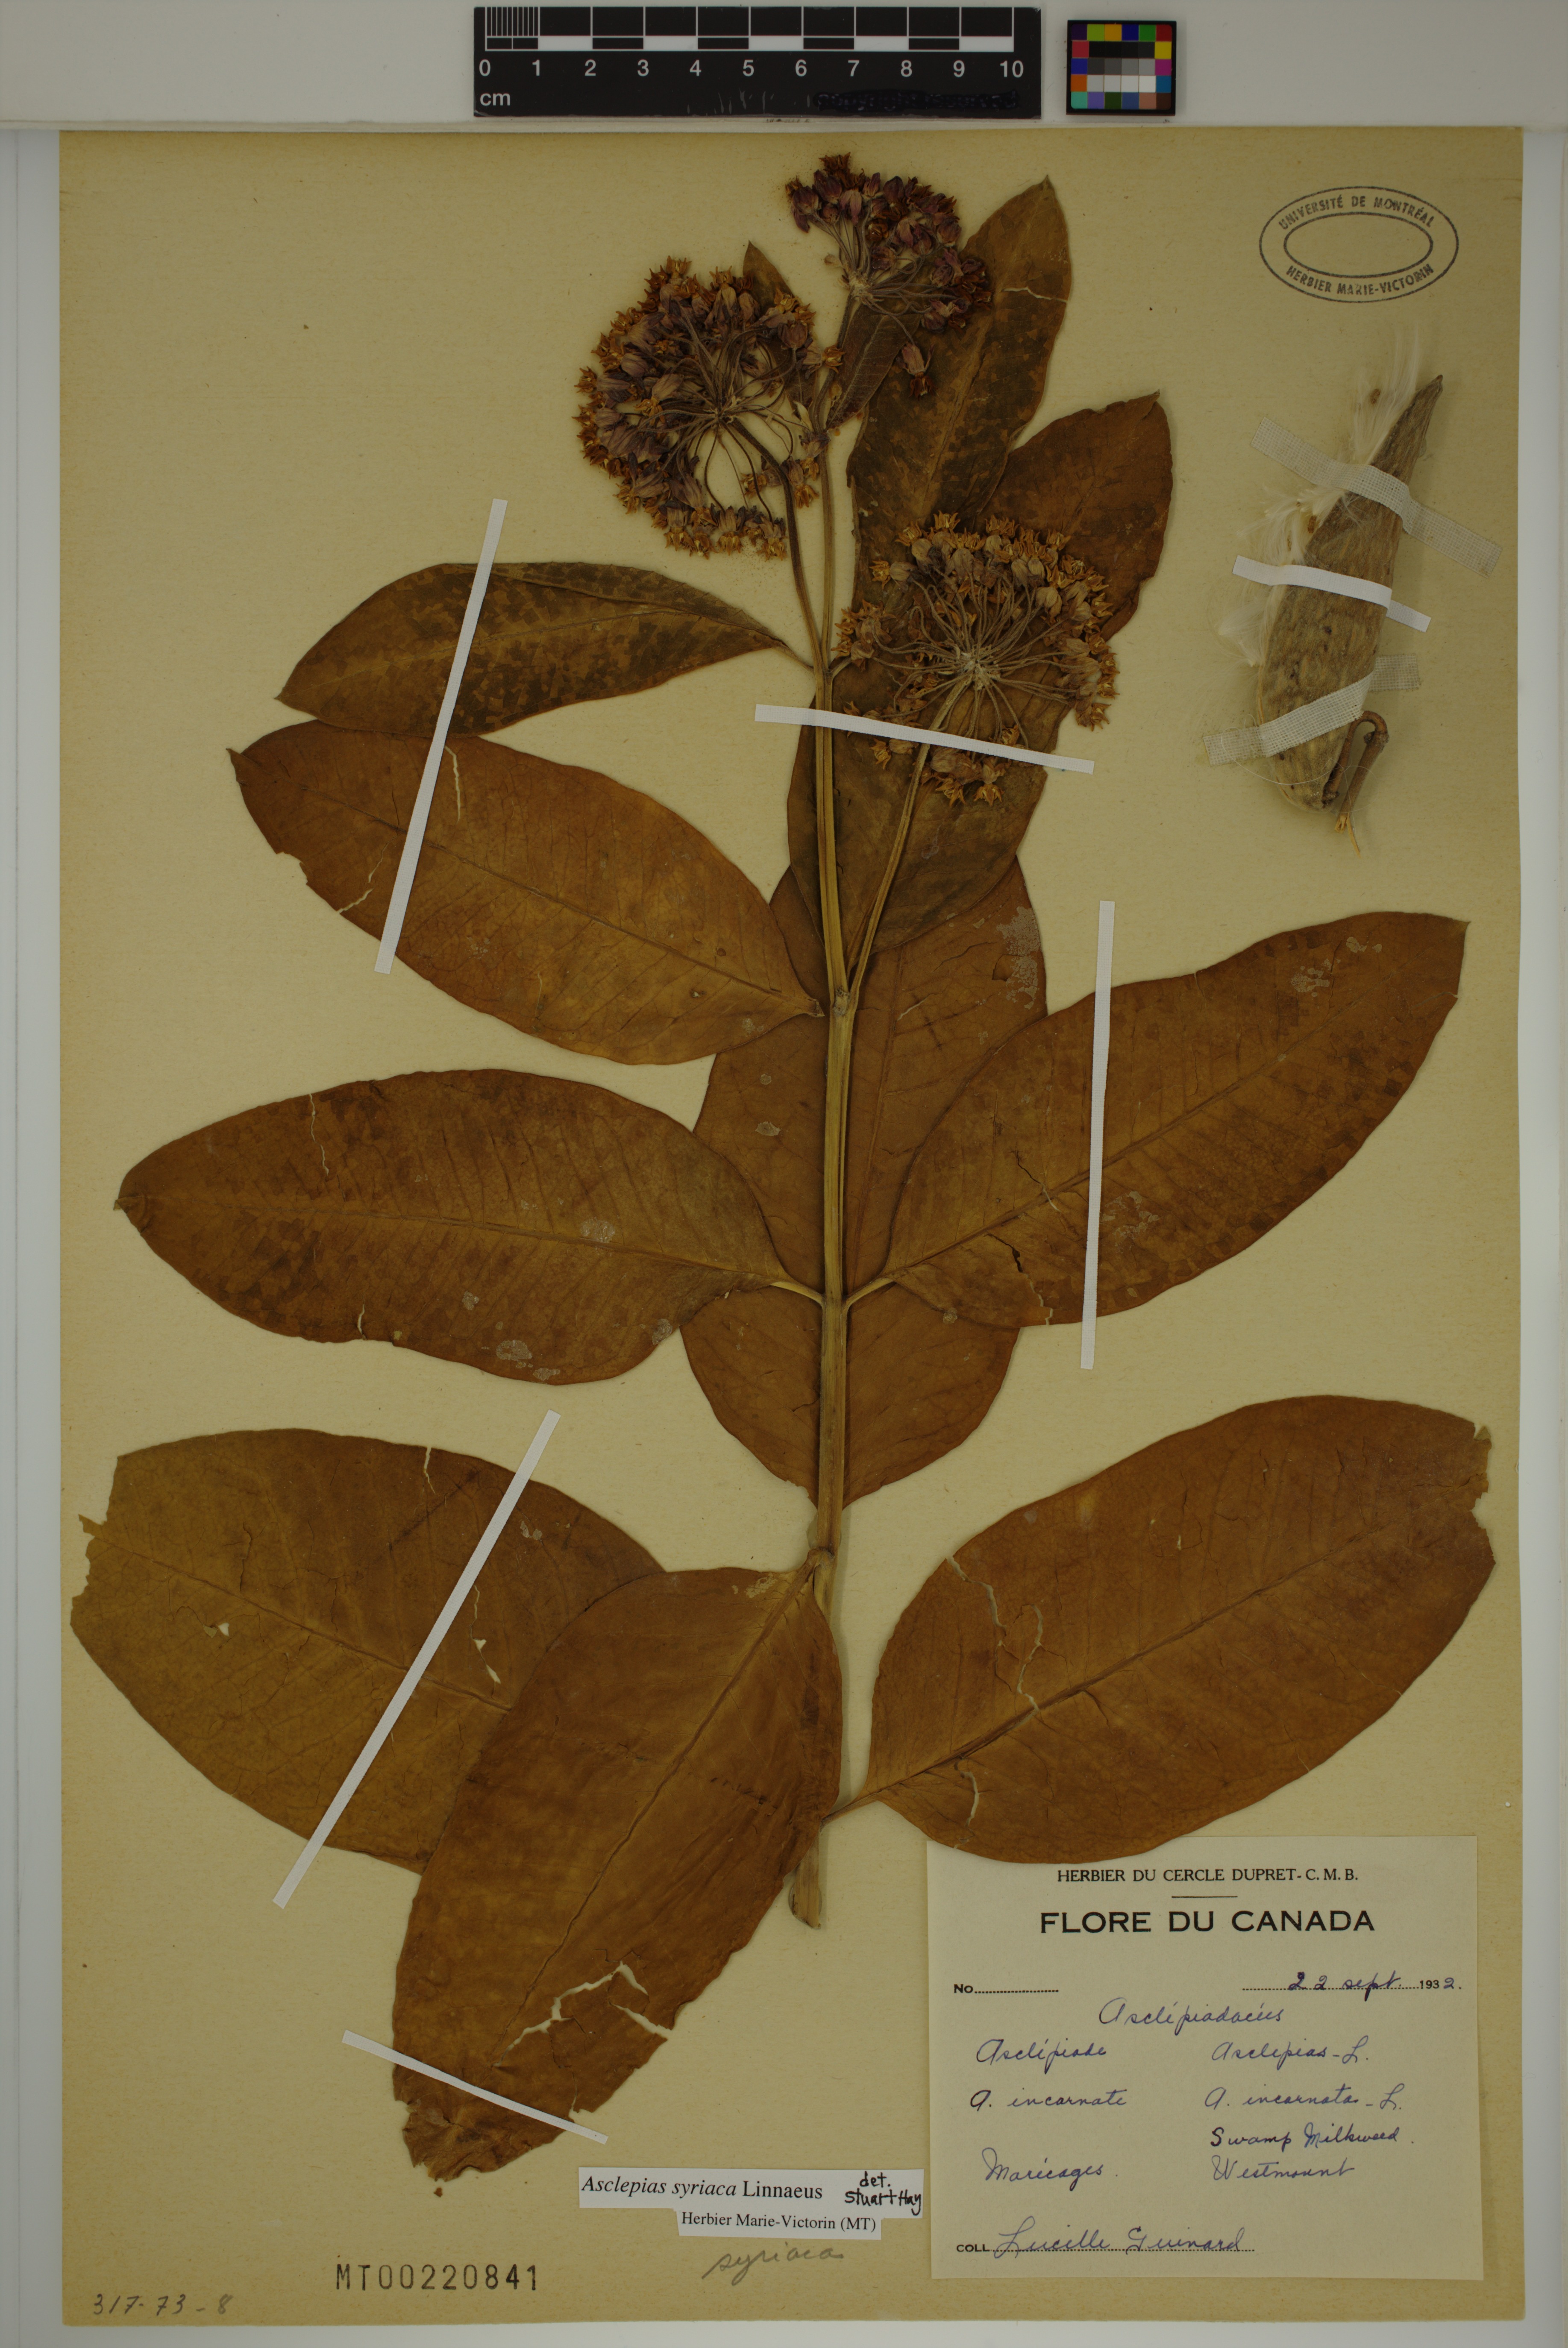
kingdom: Plantae
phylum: Tracheophyta
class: Magnoliopsida
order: Gentianales
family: Apocynaceae
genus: Asclepias
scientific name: Asclepias syriaca
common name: Common milkweed
